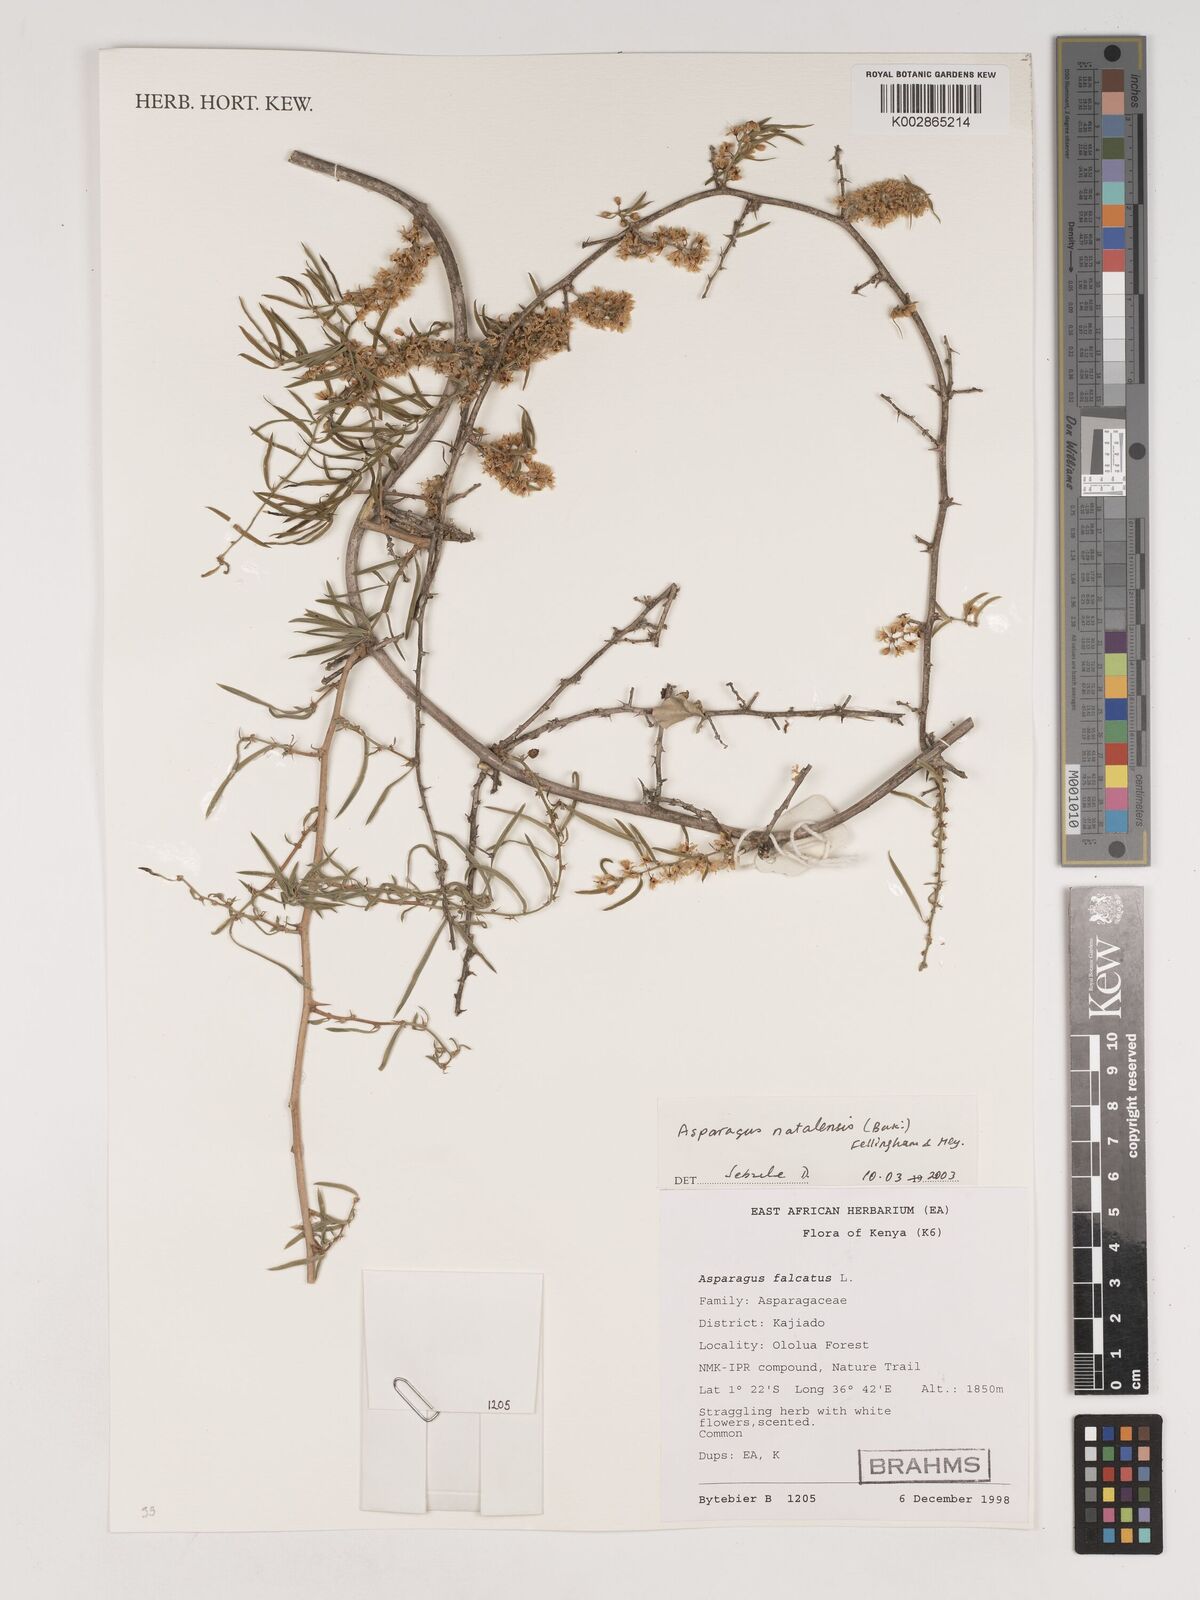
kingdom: Plantae
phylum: Tracheophyta
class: Liliopsida
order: Asparagales
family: Asparagaceae
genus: Asparagus
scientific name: Asparagus natalensis
